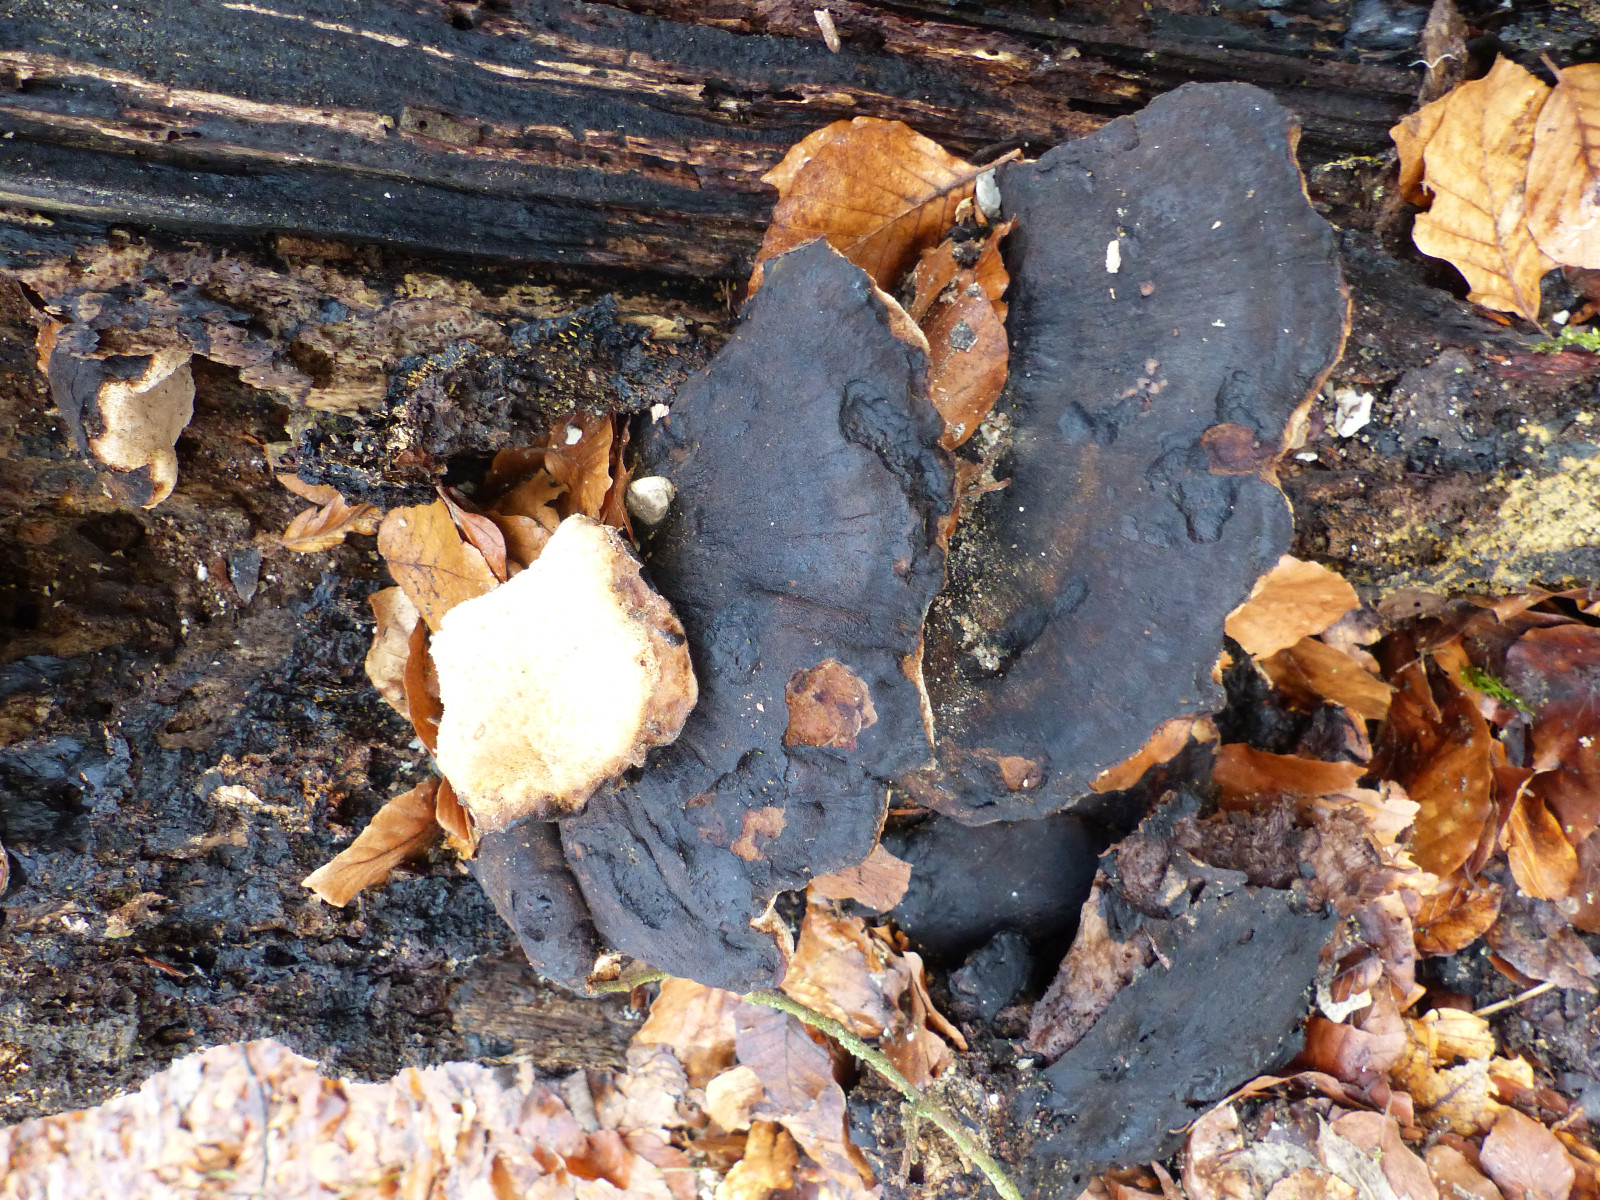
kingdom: Fungi
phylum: Basidiomycota
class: Agaricomycetes
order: Polyporales
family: Ischnodermataceae
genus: Ischnoderma
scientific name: Ischnoderma resinosum
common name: løv-tjæreporesvamp
